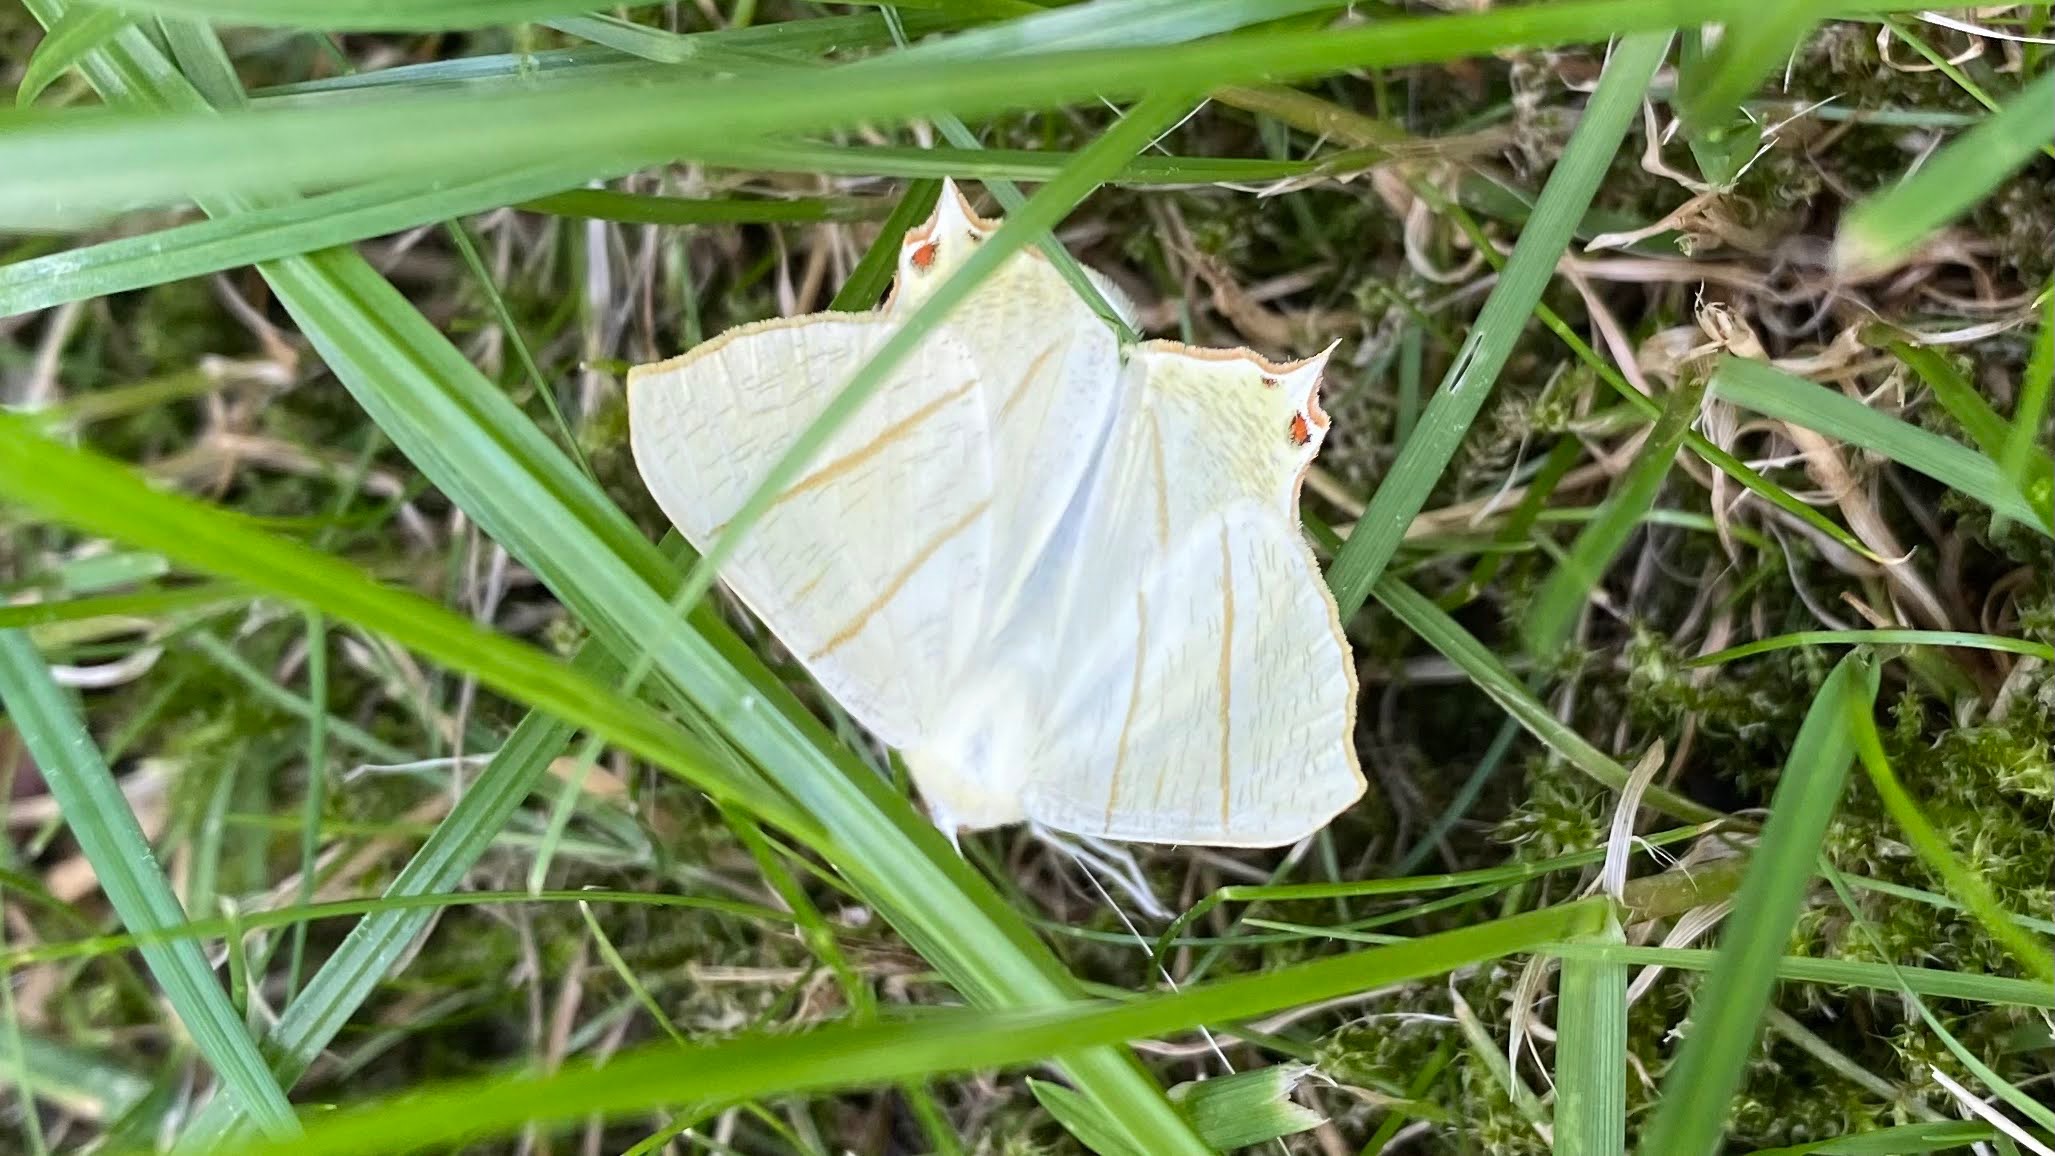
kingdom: Animalia
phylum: Arthropoda
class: Insecta
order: Lepidoptera
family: Geometridae
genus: Ourapteryx
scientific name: Ourapteryx sambucaria
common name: Natsvalehale
